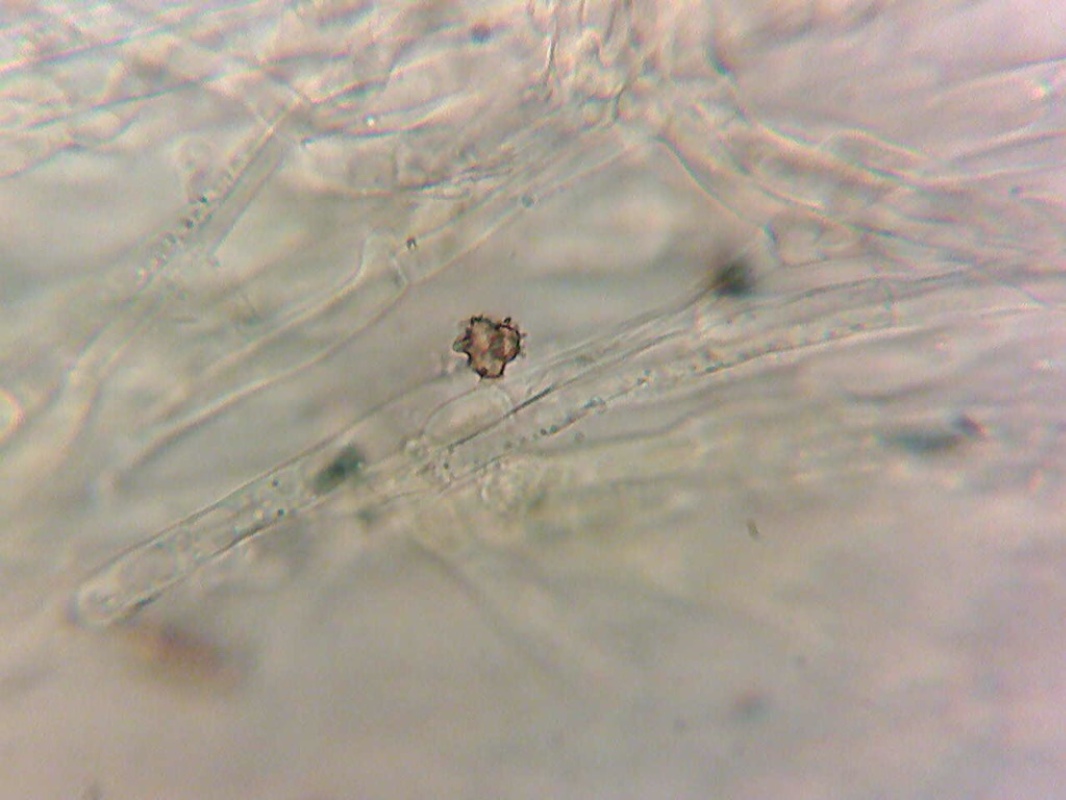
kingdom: Fungi
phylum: Basidiomycota
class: Agaricomycetes
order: Agaricales
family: Stephanosporaceae
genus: Lindtneria
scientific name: Lindtneria leucobryophila
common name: bleg citrushinde
